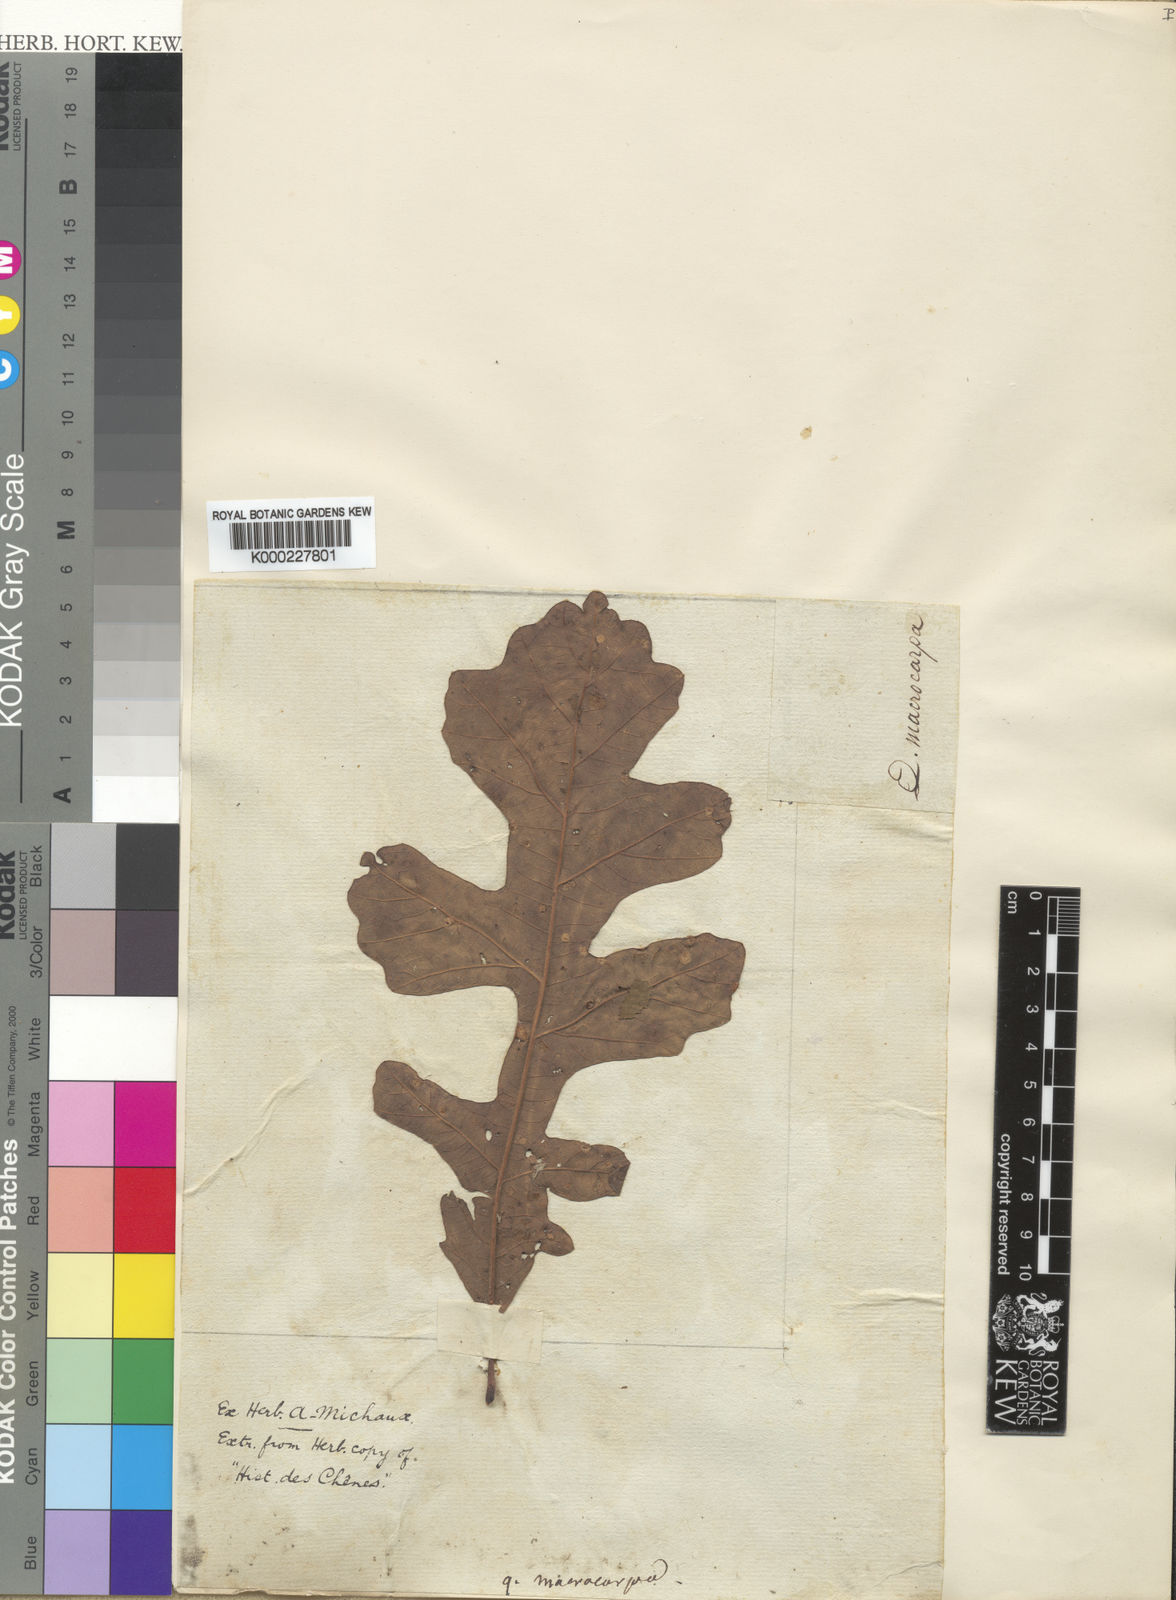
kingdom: Plantae
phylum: Tracheophyta
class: Magnoliopsida
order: Fagales
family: Fagaceae
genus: Quercus
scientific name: Quercus macrocarpa
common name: Bur oak
